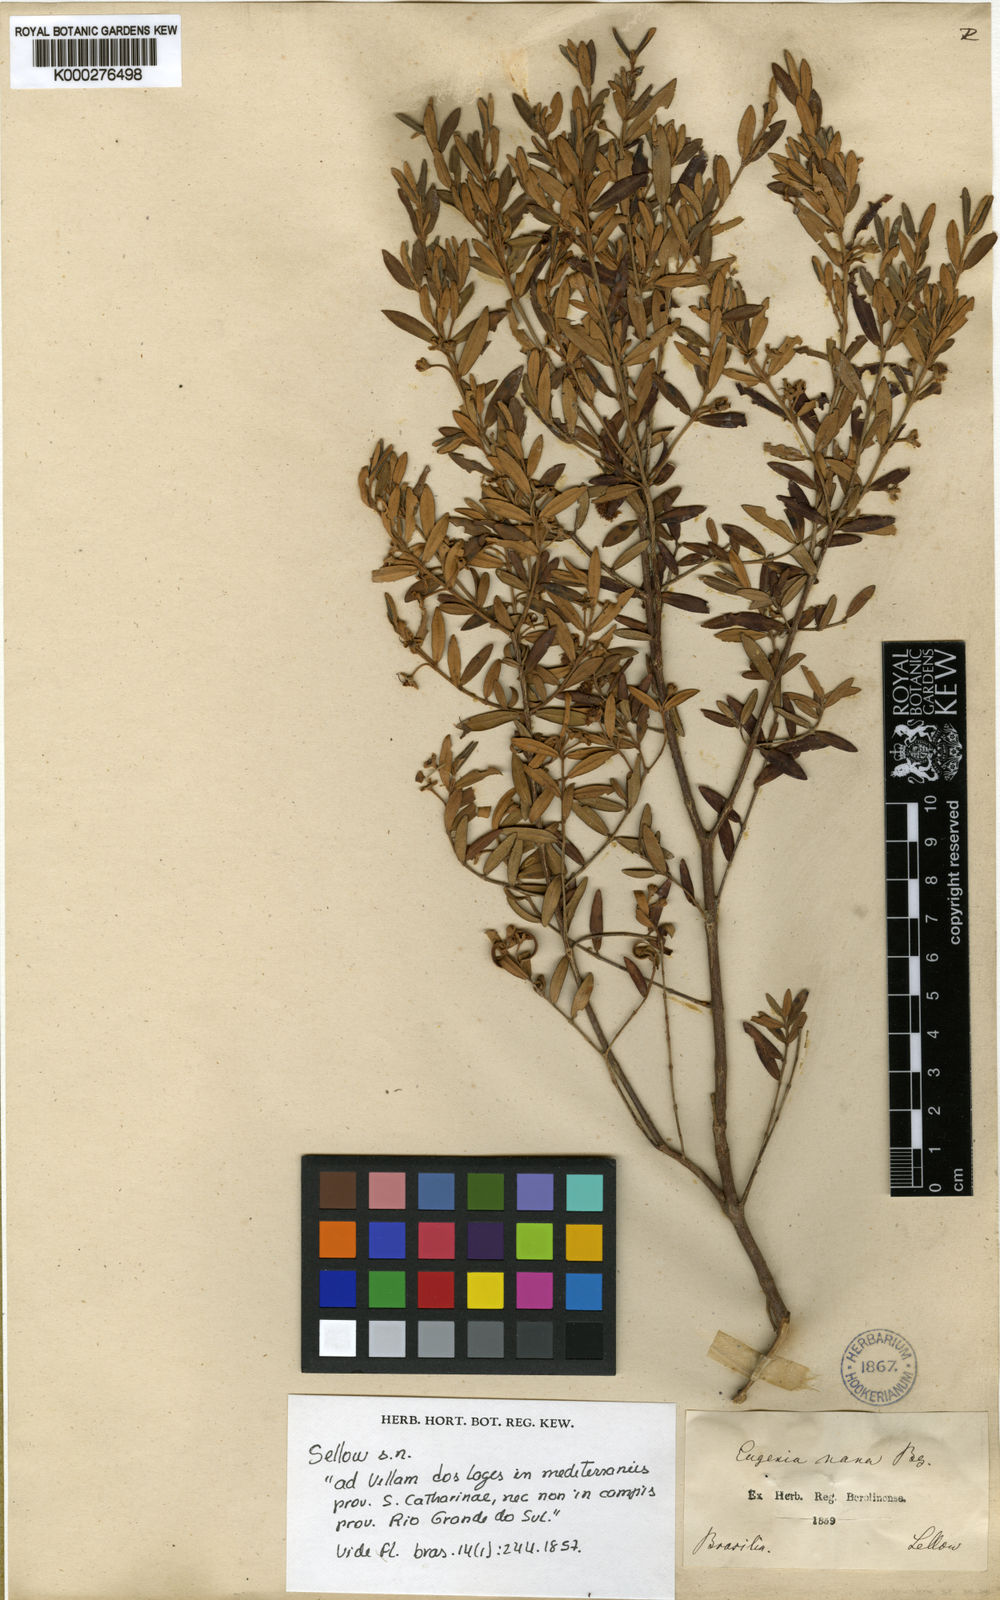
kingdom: Plantae
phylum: Tracheophyta
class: Magnoliopsida
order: Myrtales
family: Myrtaceae
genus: Myrceugenia
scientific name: Myrceugenia euosma
